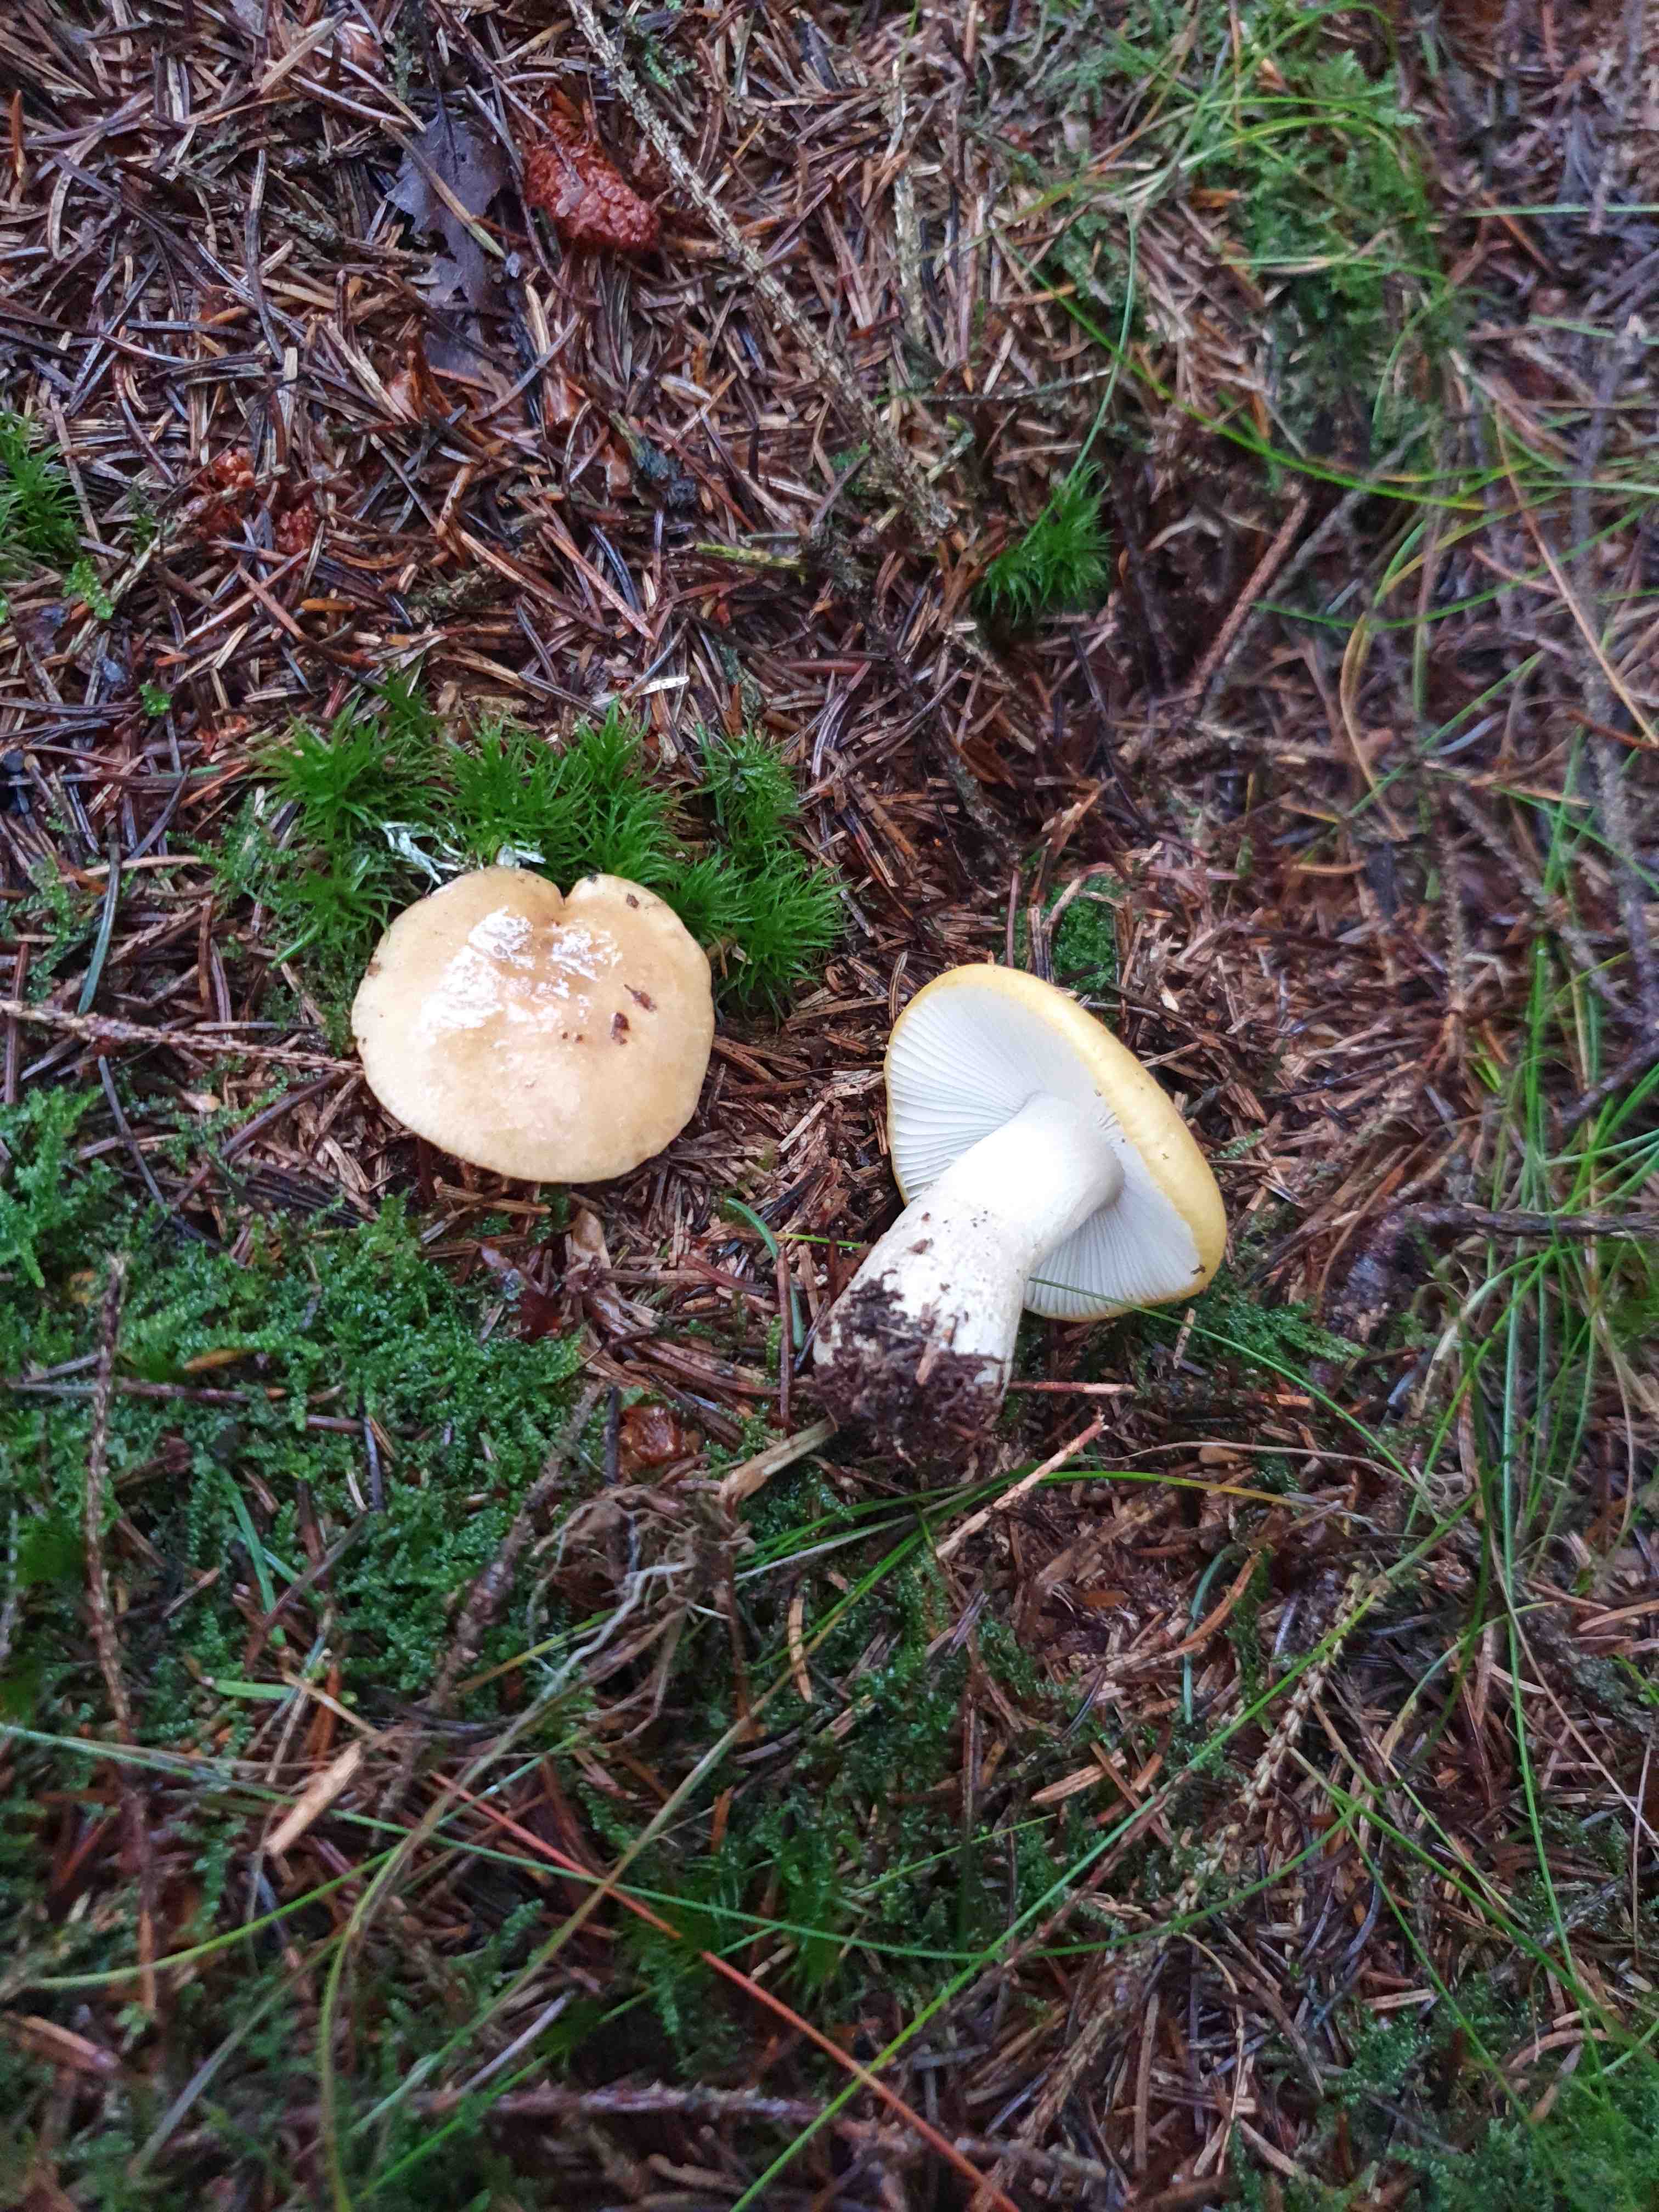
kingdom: Fungi
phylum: Basidiomycota
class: Agaricomycetes
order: Russulales
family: Russulaceae
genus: Russula
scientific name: Russula ochroleuca
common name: okkergul skørhat
